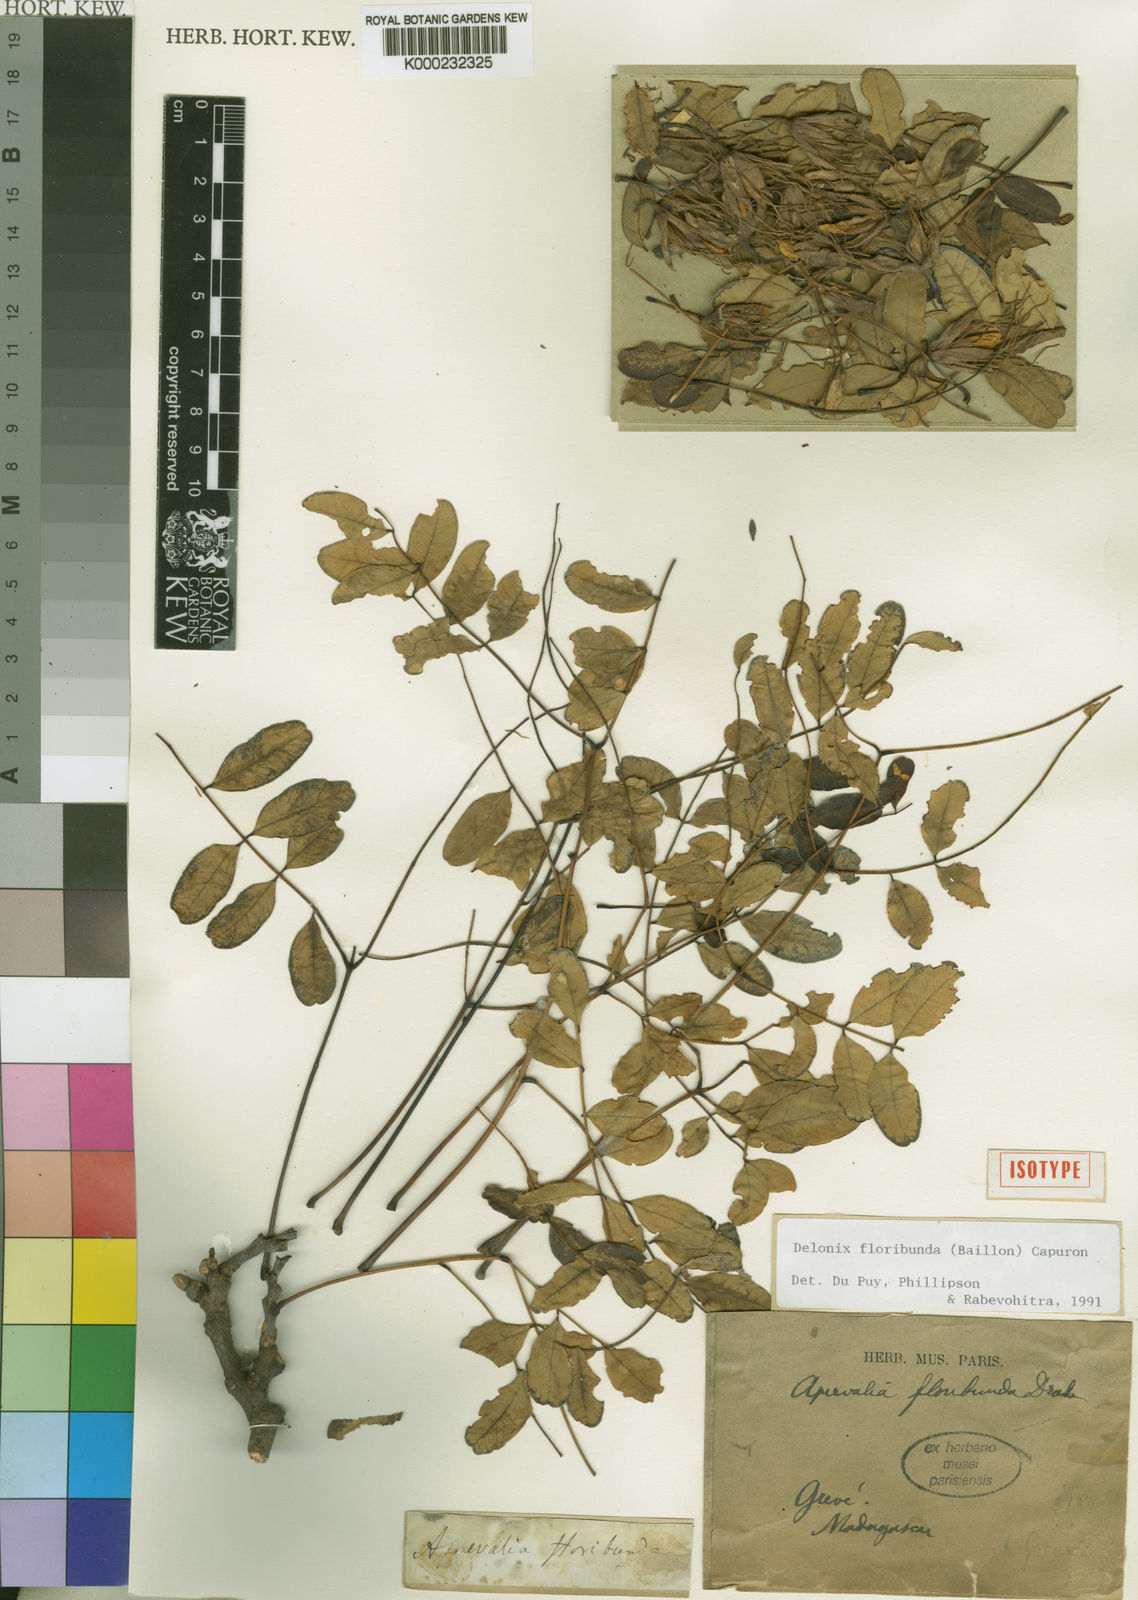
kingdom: Plantae
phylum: Tracheophyta
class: Magnoliopsida
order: Fabales
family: Fabaceae
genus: Delonix
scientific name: Delonix floribunda
